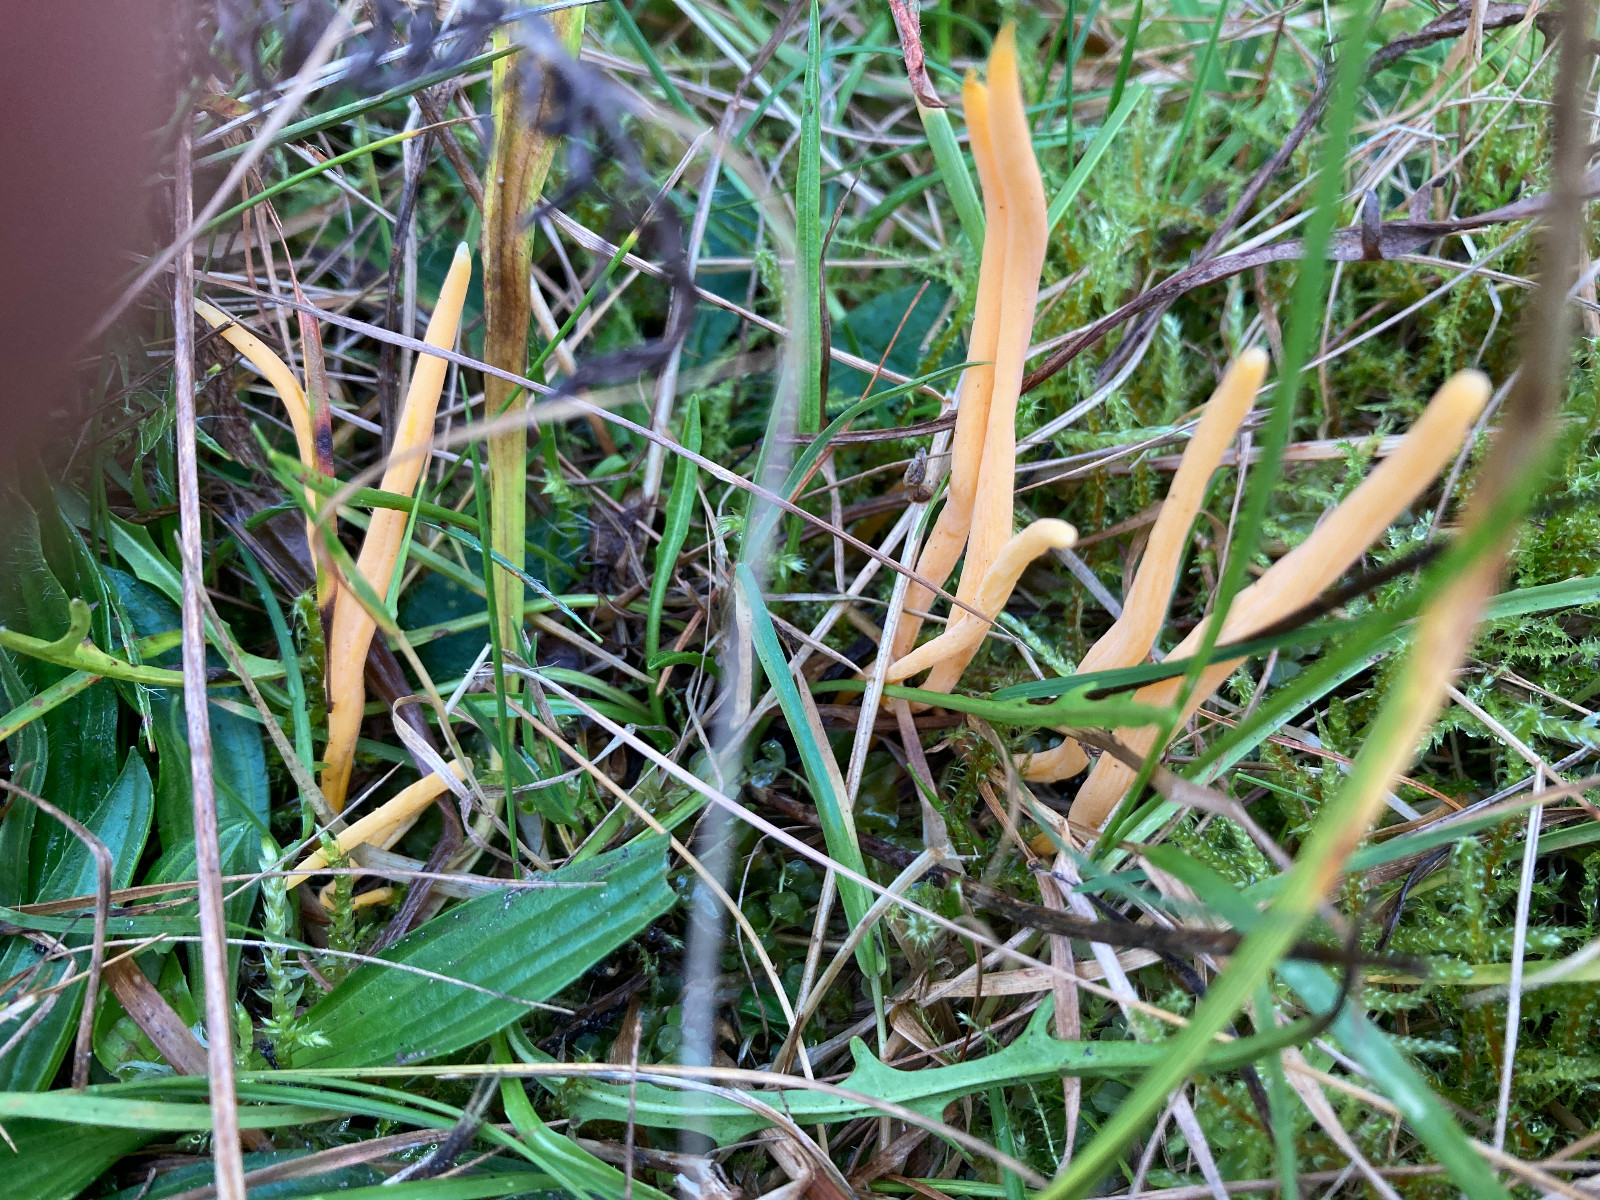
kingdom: Fungi
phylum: Basidiomycota
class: Agaricomycetes
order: Agaricales
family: Clavariaceae
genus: Clavulinopsis
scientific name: Clavulinopsis luteoalba
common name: abrikos-køllesvamp
